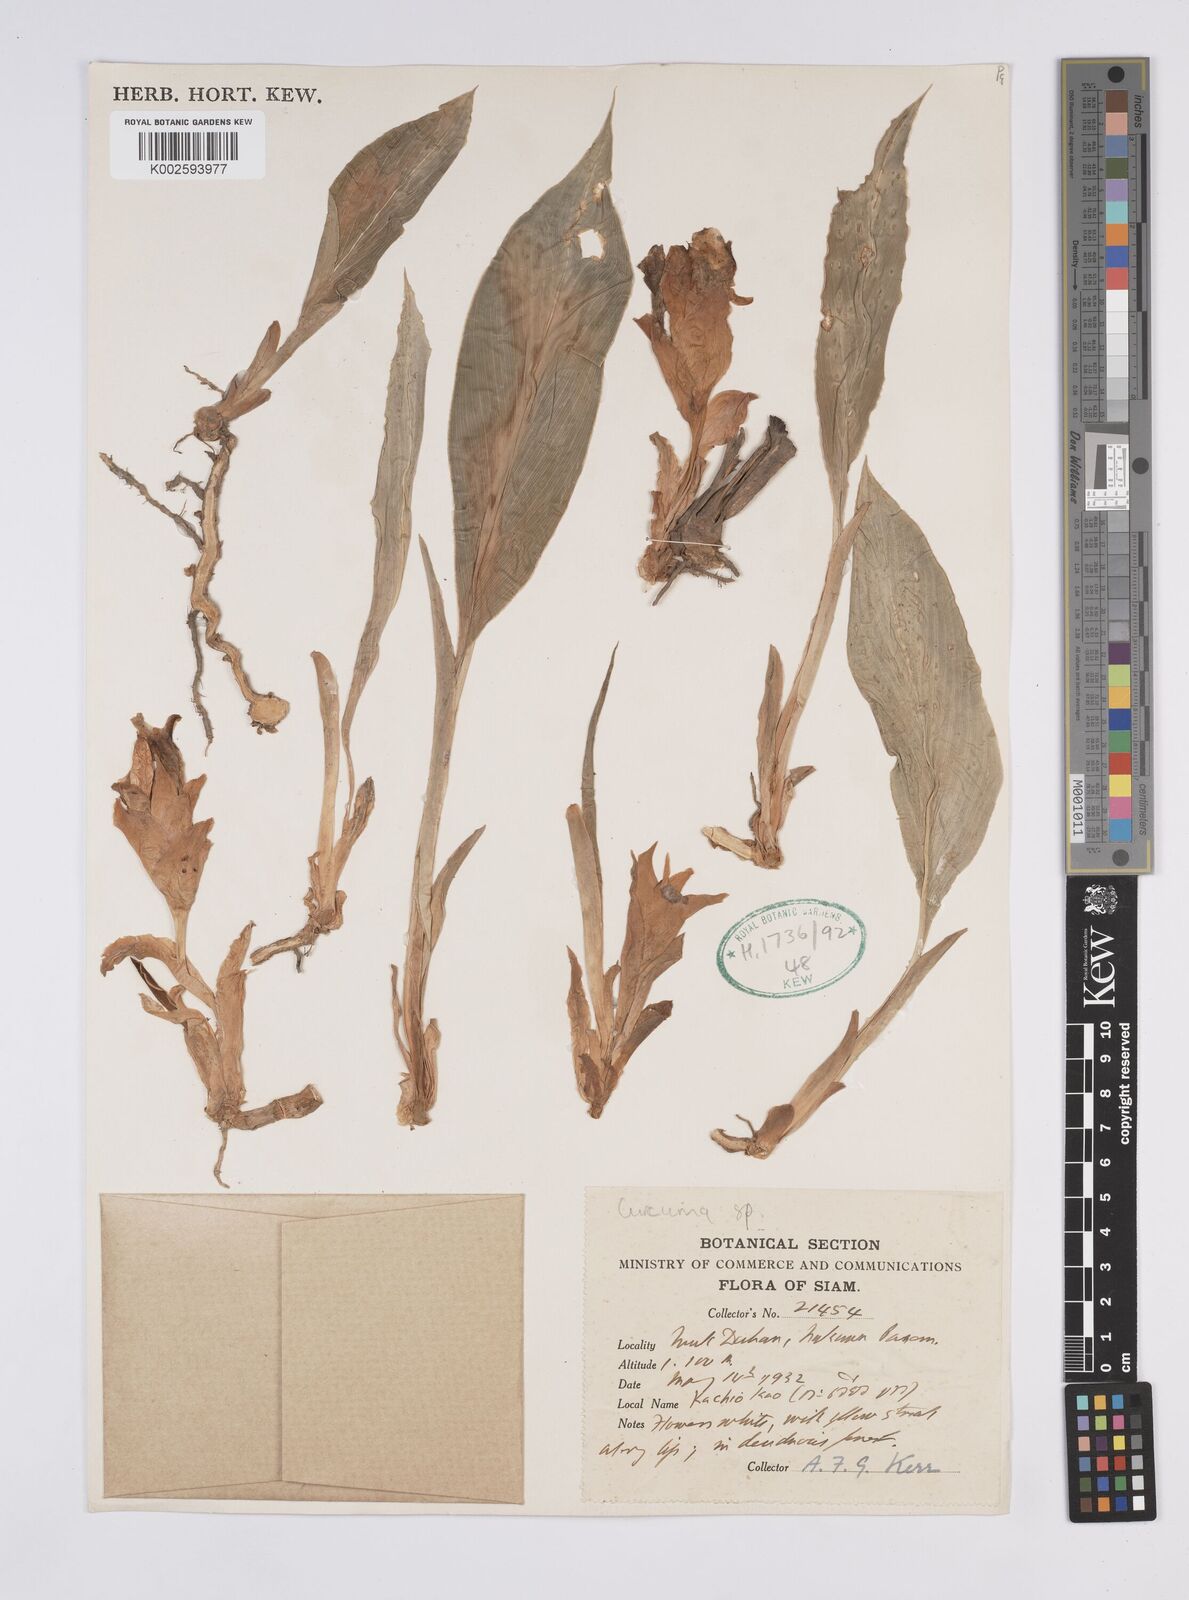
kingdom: Plantae
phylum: Tracheophyta
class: Liliopsida
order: Zingiberales
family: Zingiberaceae
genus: Curcuma
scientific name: Curcuma
